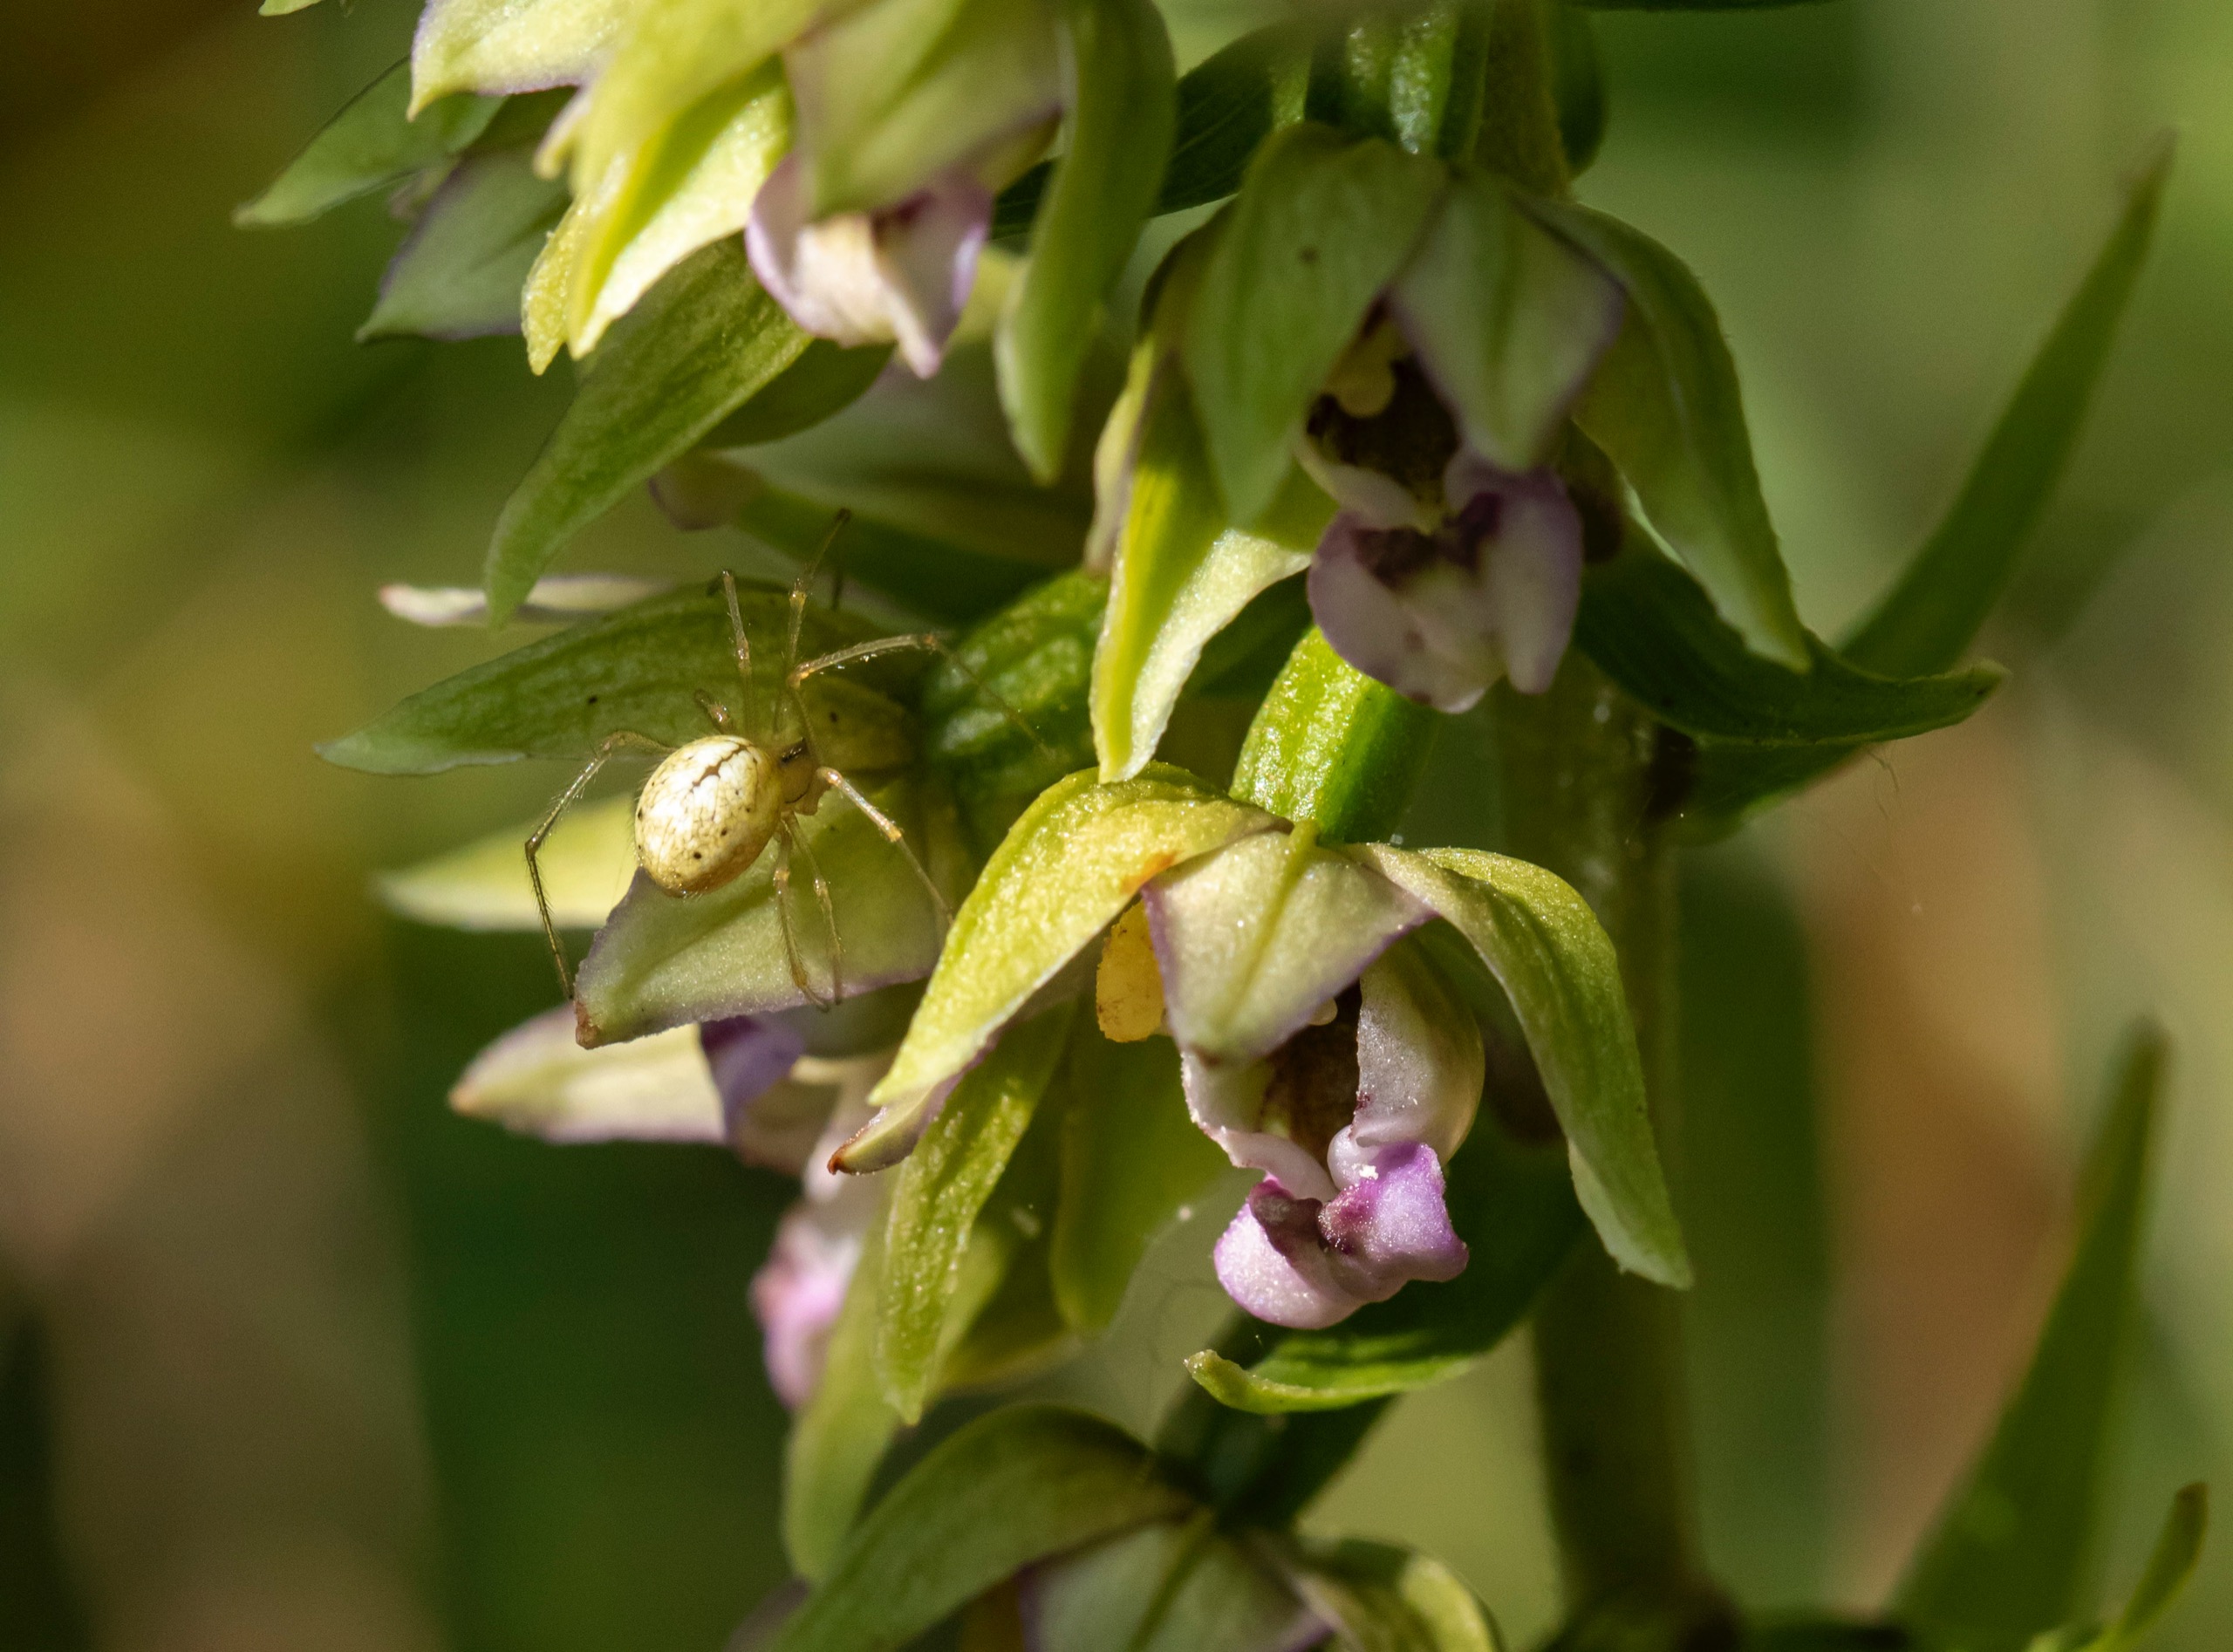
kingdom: Plantae
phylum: Tracheophyta
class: Liliopsida
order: Asparagales
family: Orchidaceae
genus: Epipactis
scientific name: Epipactis helleborine
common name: Skov-hullæbe
